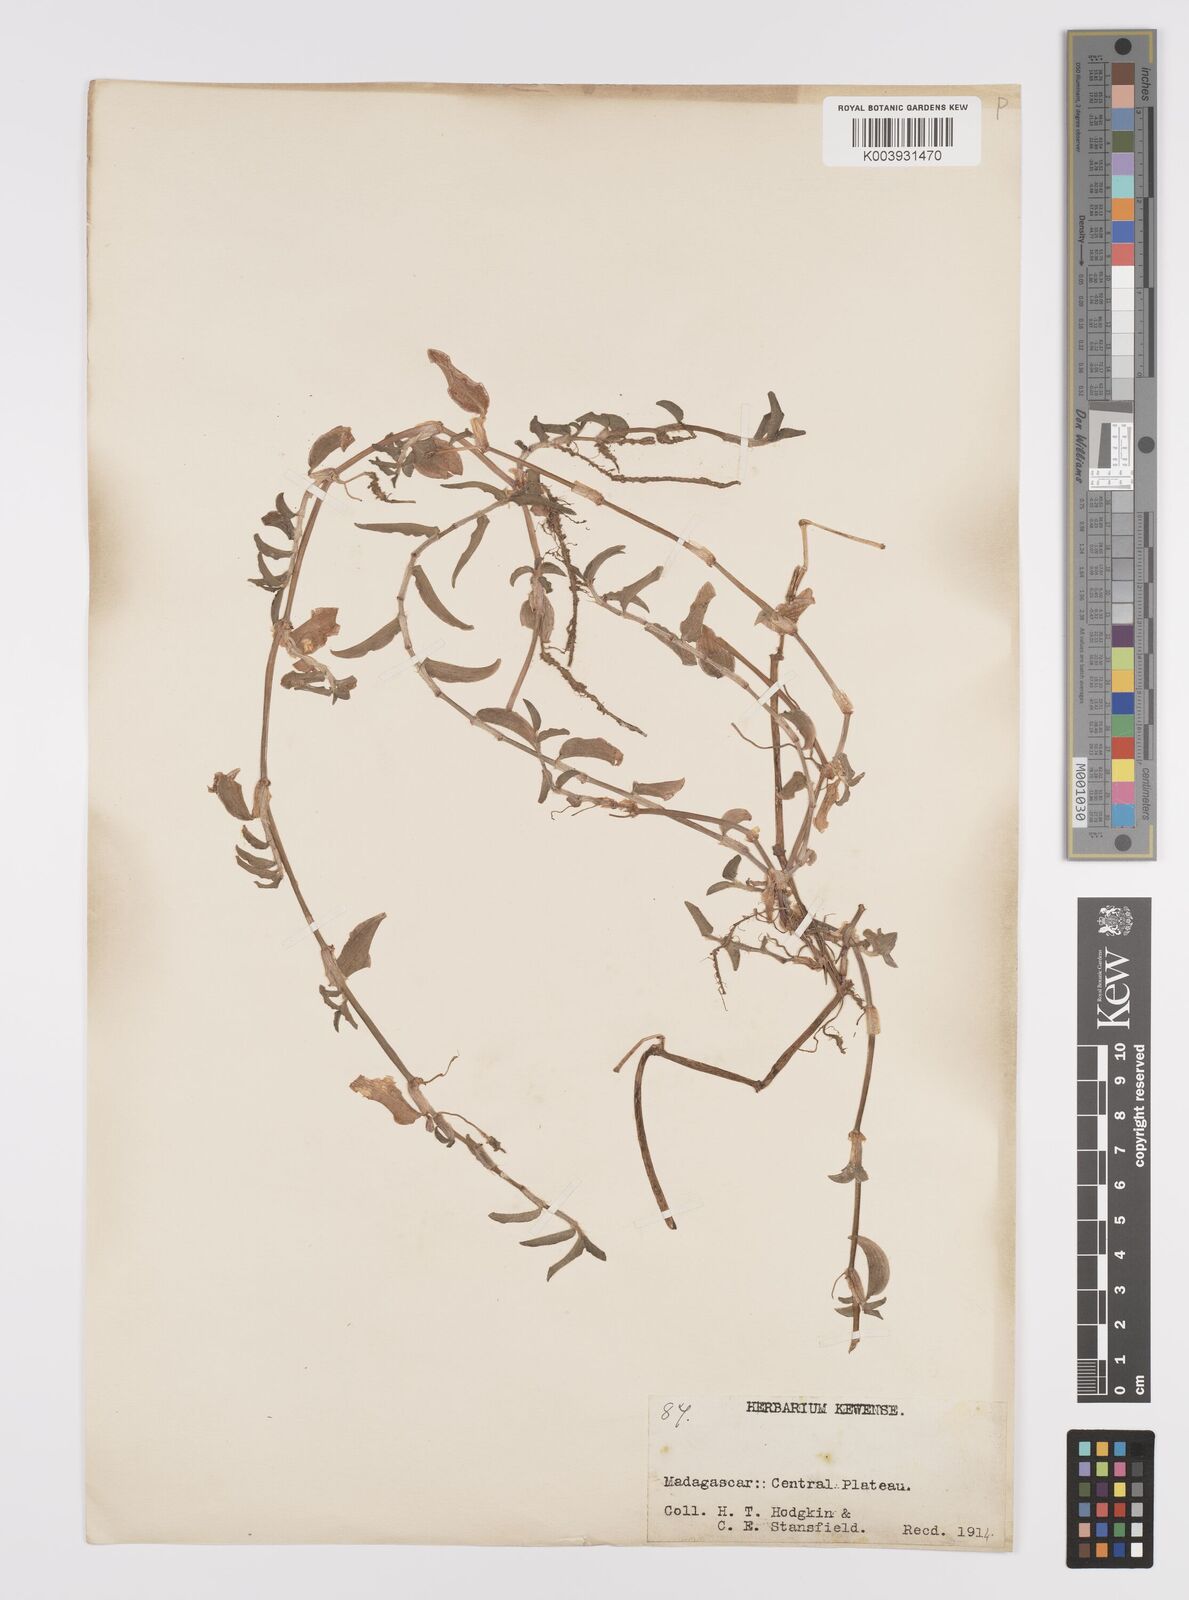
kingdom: Plantae
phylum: Tracheophyta
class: Liliopsida
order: Commelinales
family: Commelinaceae
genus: Commelina
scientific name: Commelina
